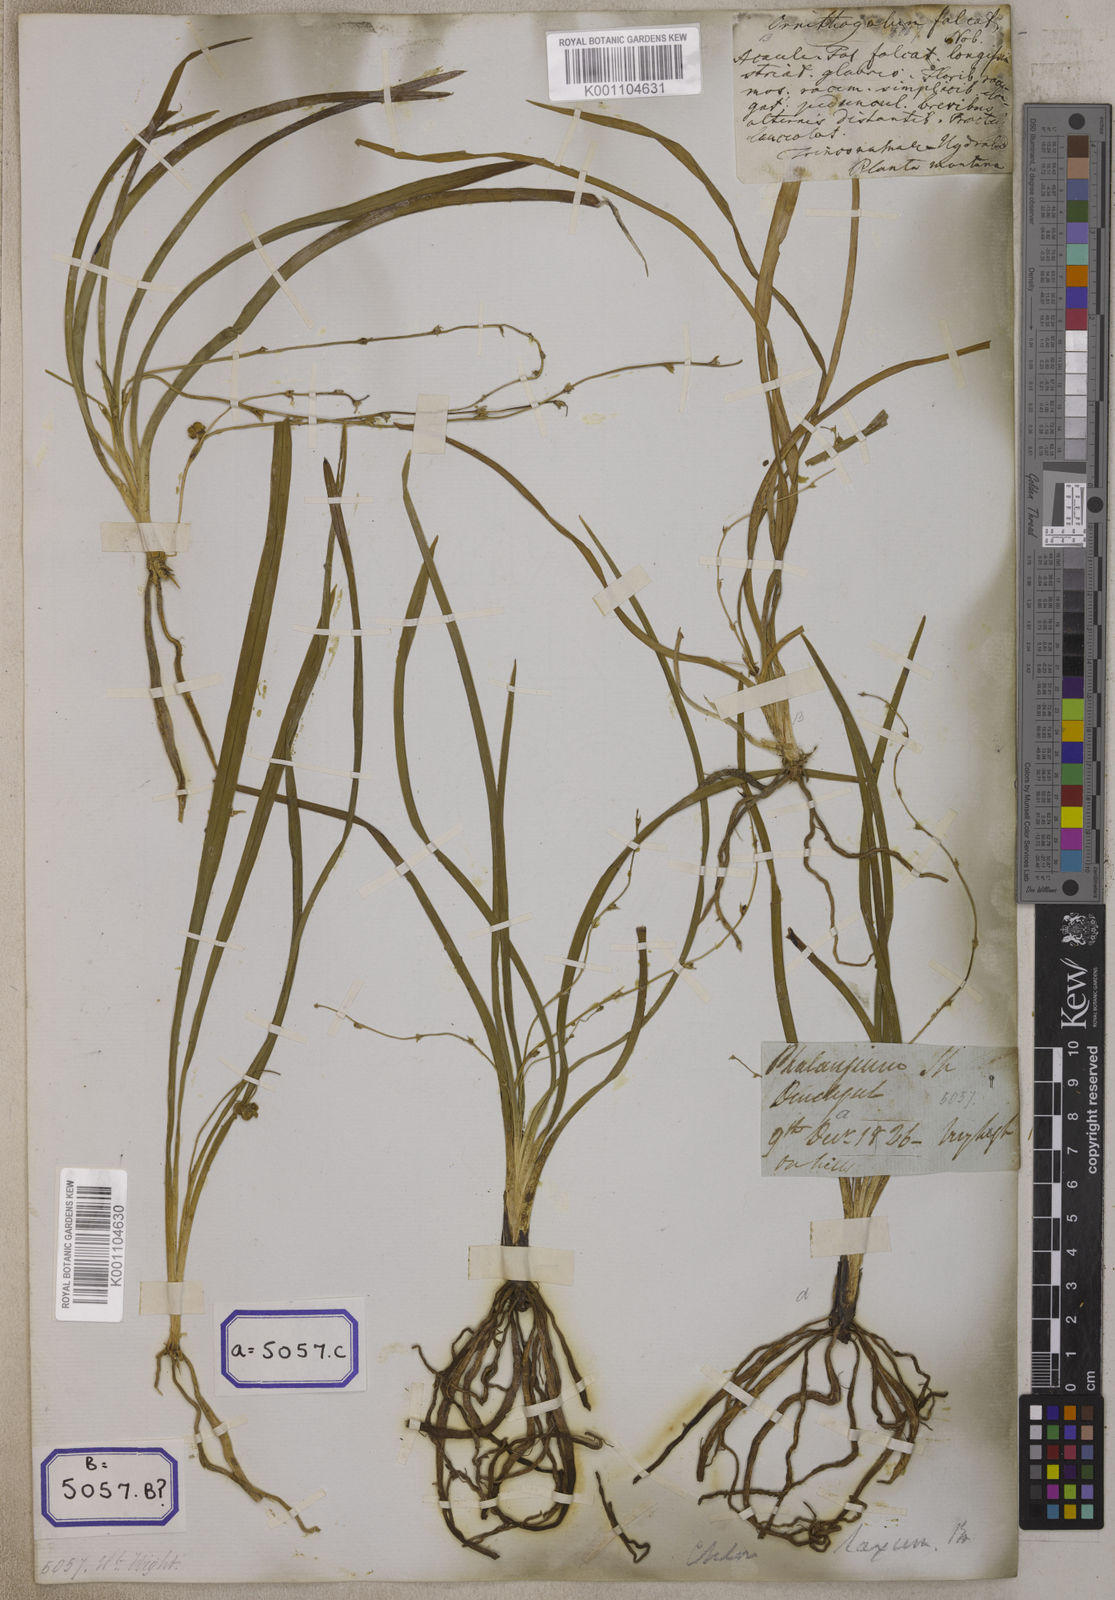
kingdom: Plantae
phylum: Tracheophyta
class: Liliopsida
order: Asparagales
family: Iridaceae
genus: Phalangium
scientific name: Phalangium
